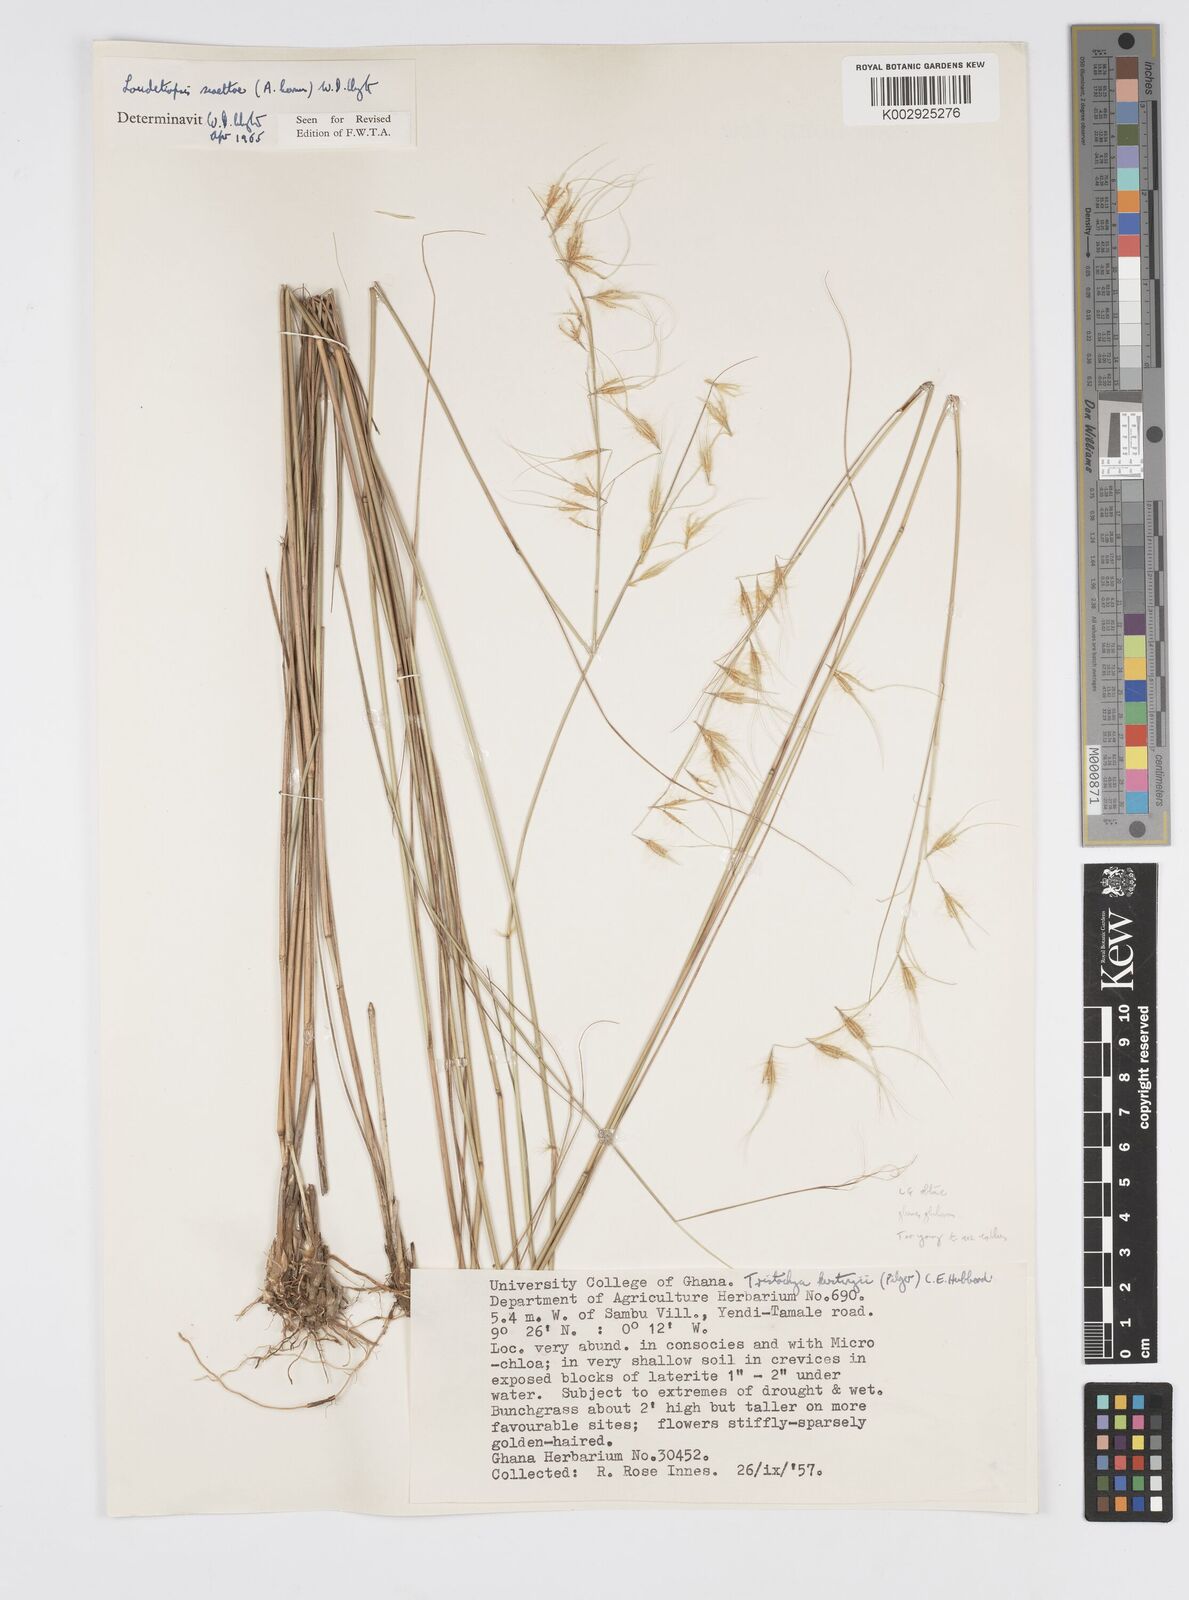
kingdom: Plantae
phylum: Tracheophyta
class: Liliopsida
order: Poales
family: Poaceae
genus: Loudetiopsis
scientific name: Loudetiopsis scaettae
